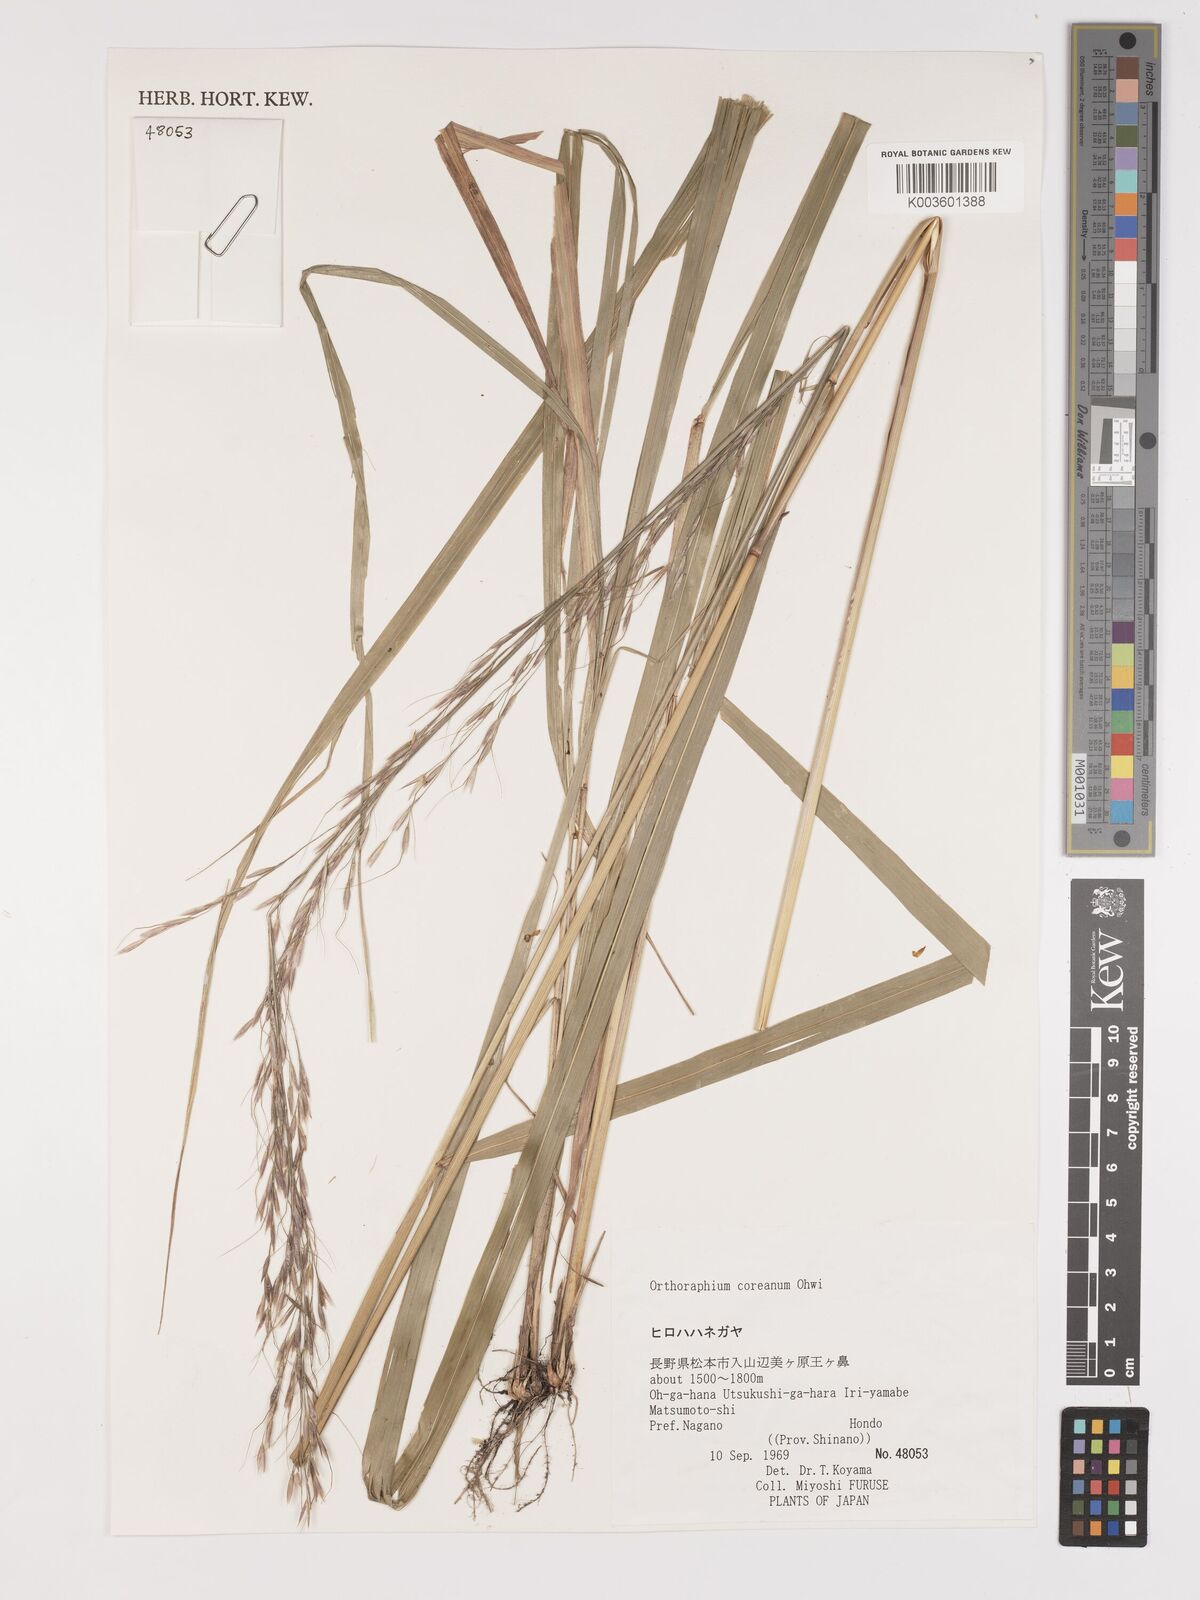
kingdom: Plantae
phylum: Tracheophyta
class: Liliopsida
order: Poales
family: Poaceae
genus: Patis
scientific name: Patis coreana
